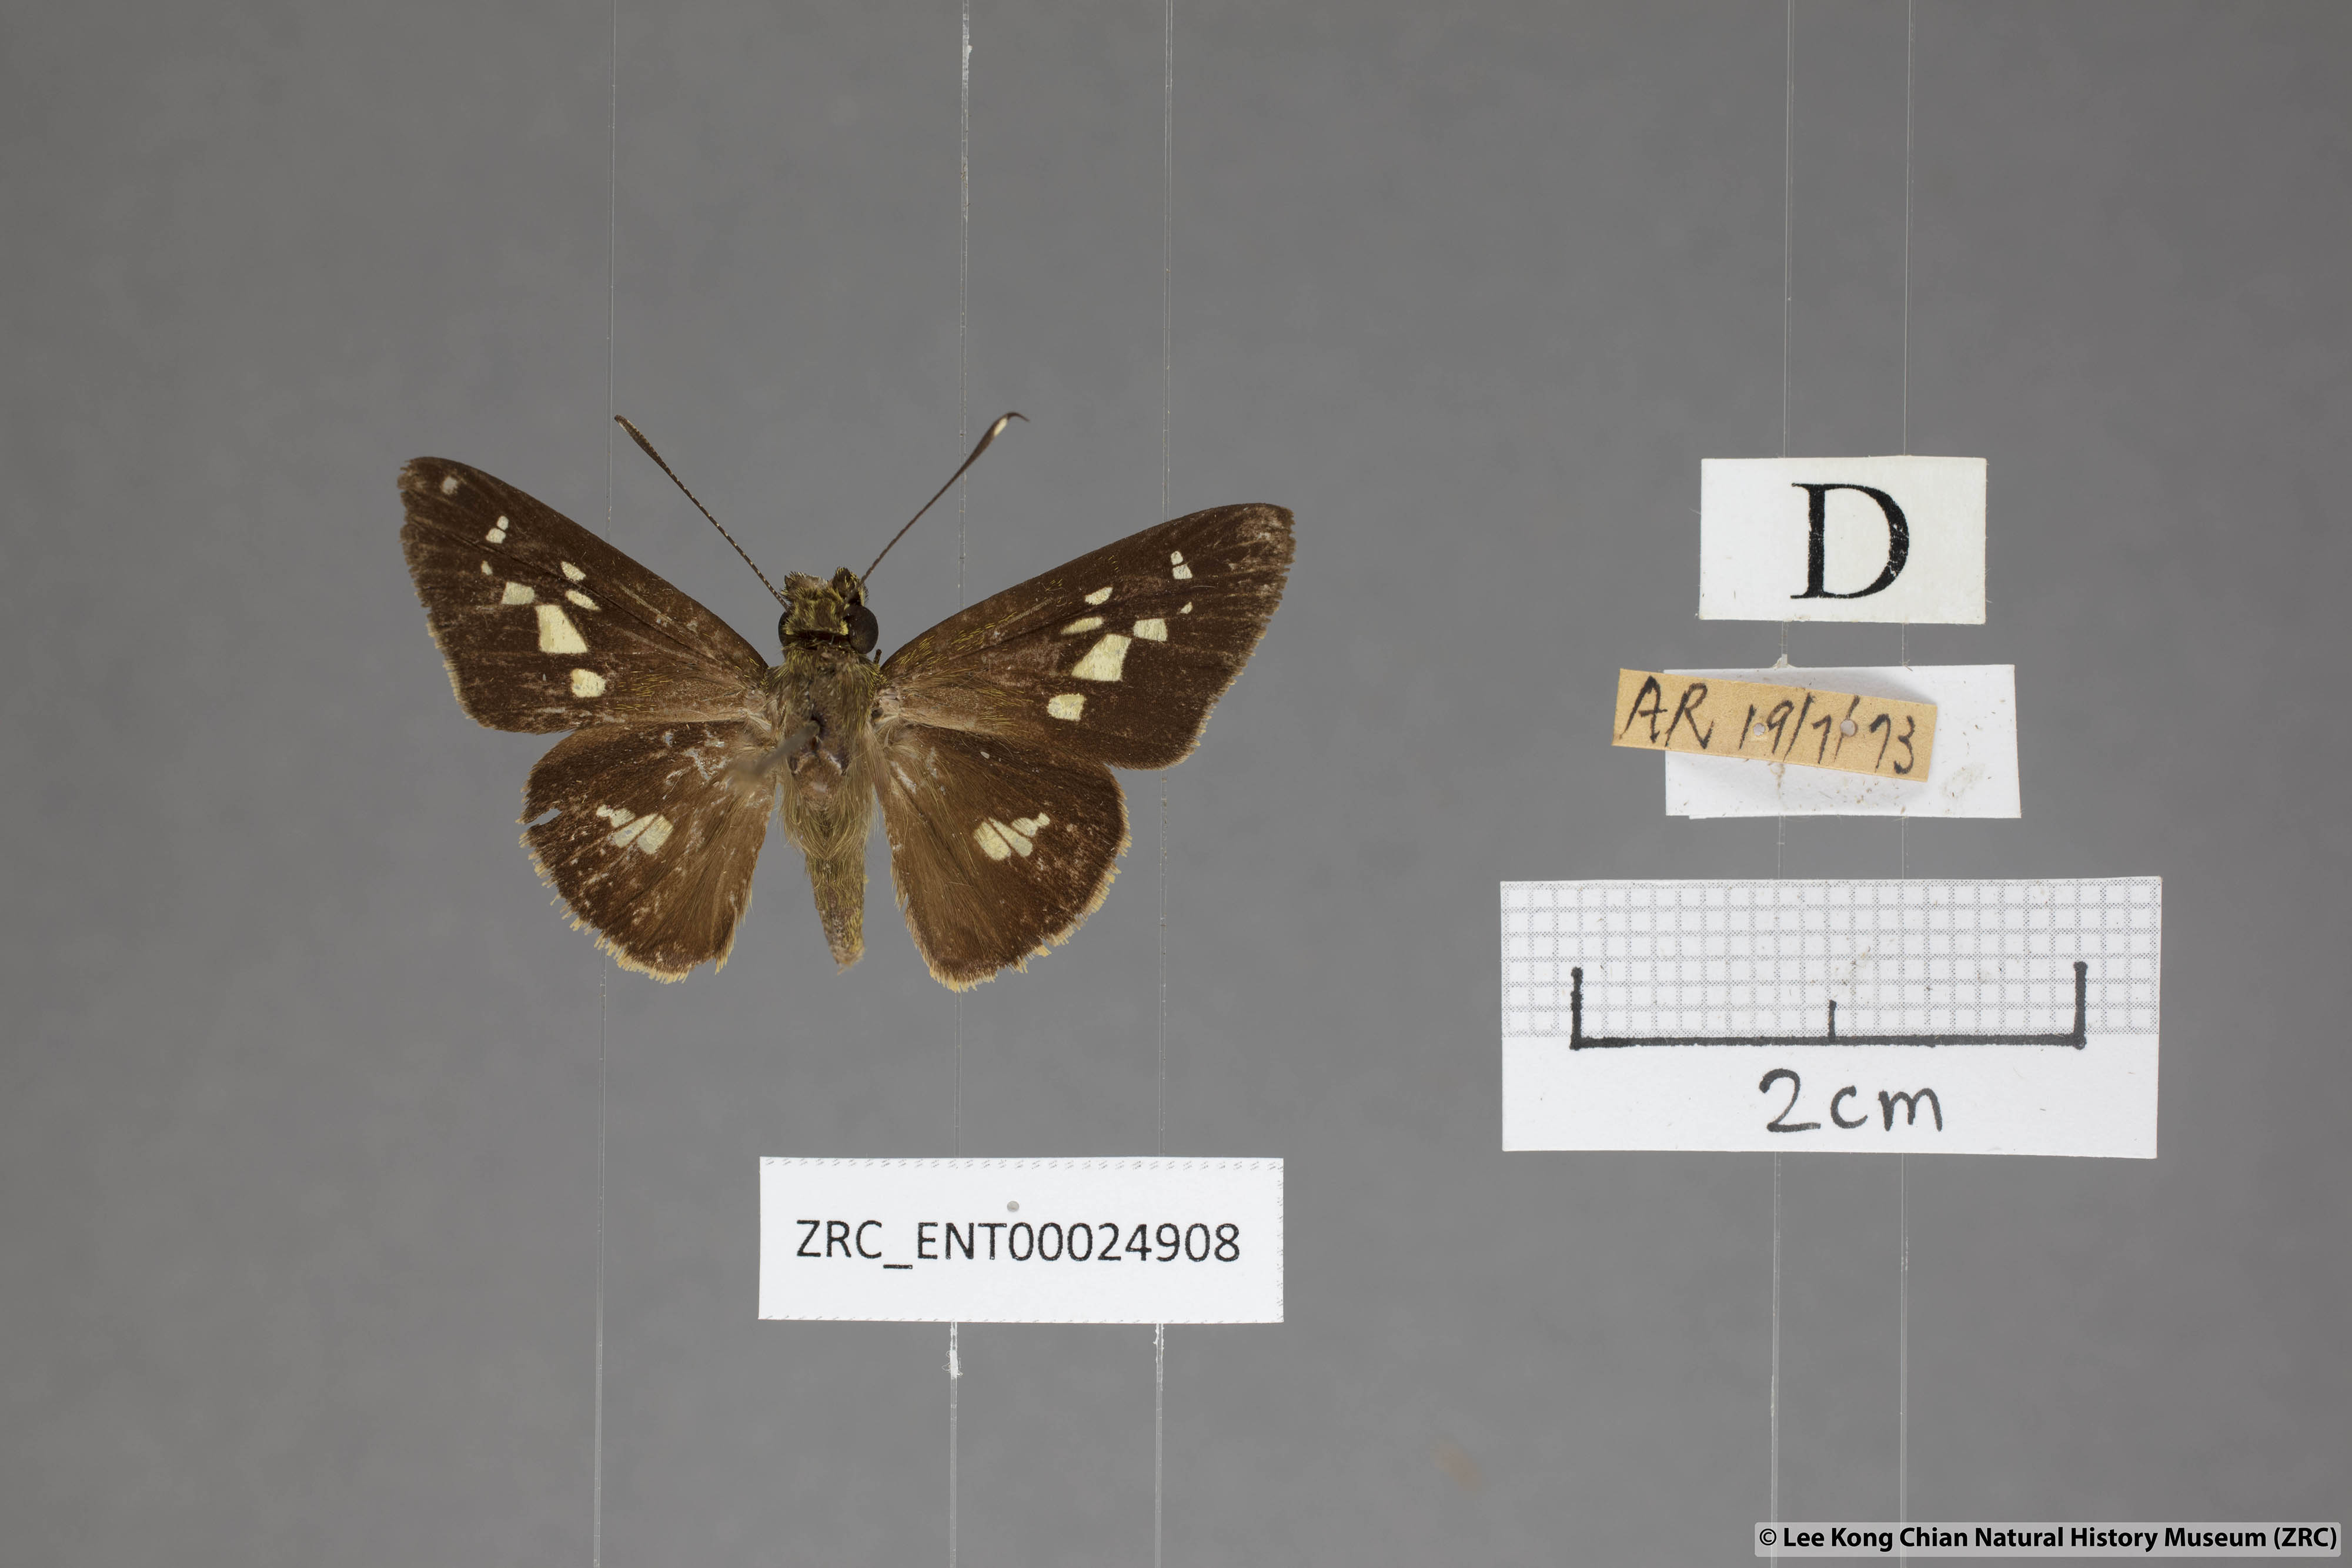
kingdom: Animalia
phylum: Arthropoda
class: Insecta
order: Lepidoptera
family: Hesperiidae
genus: Isma
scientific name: Isma umbrosa
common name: Large long-banded flitter
